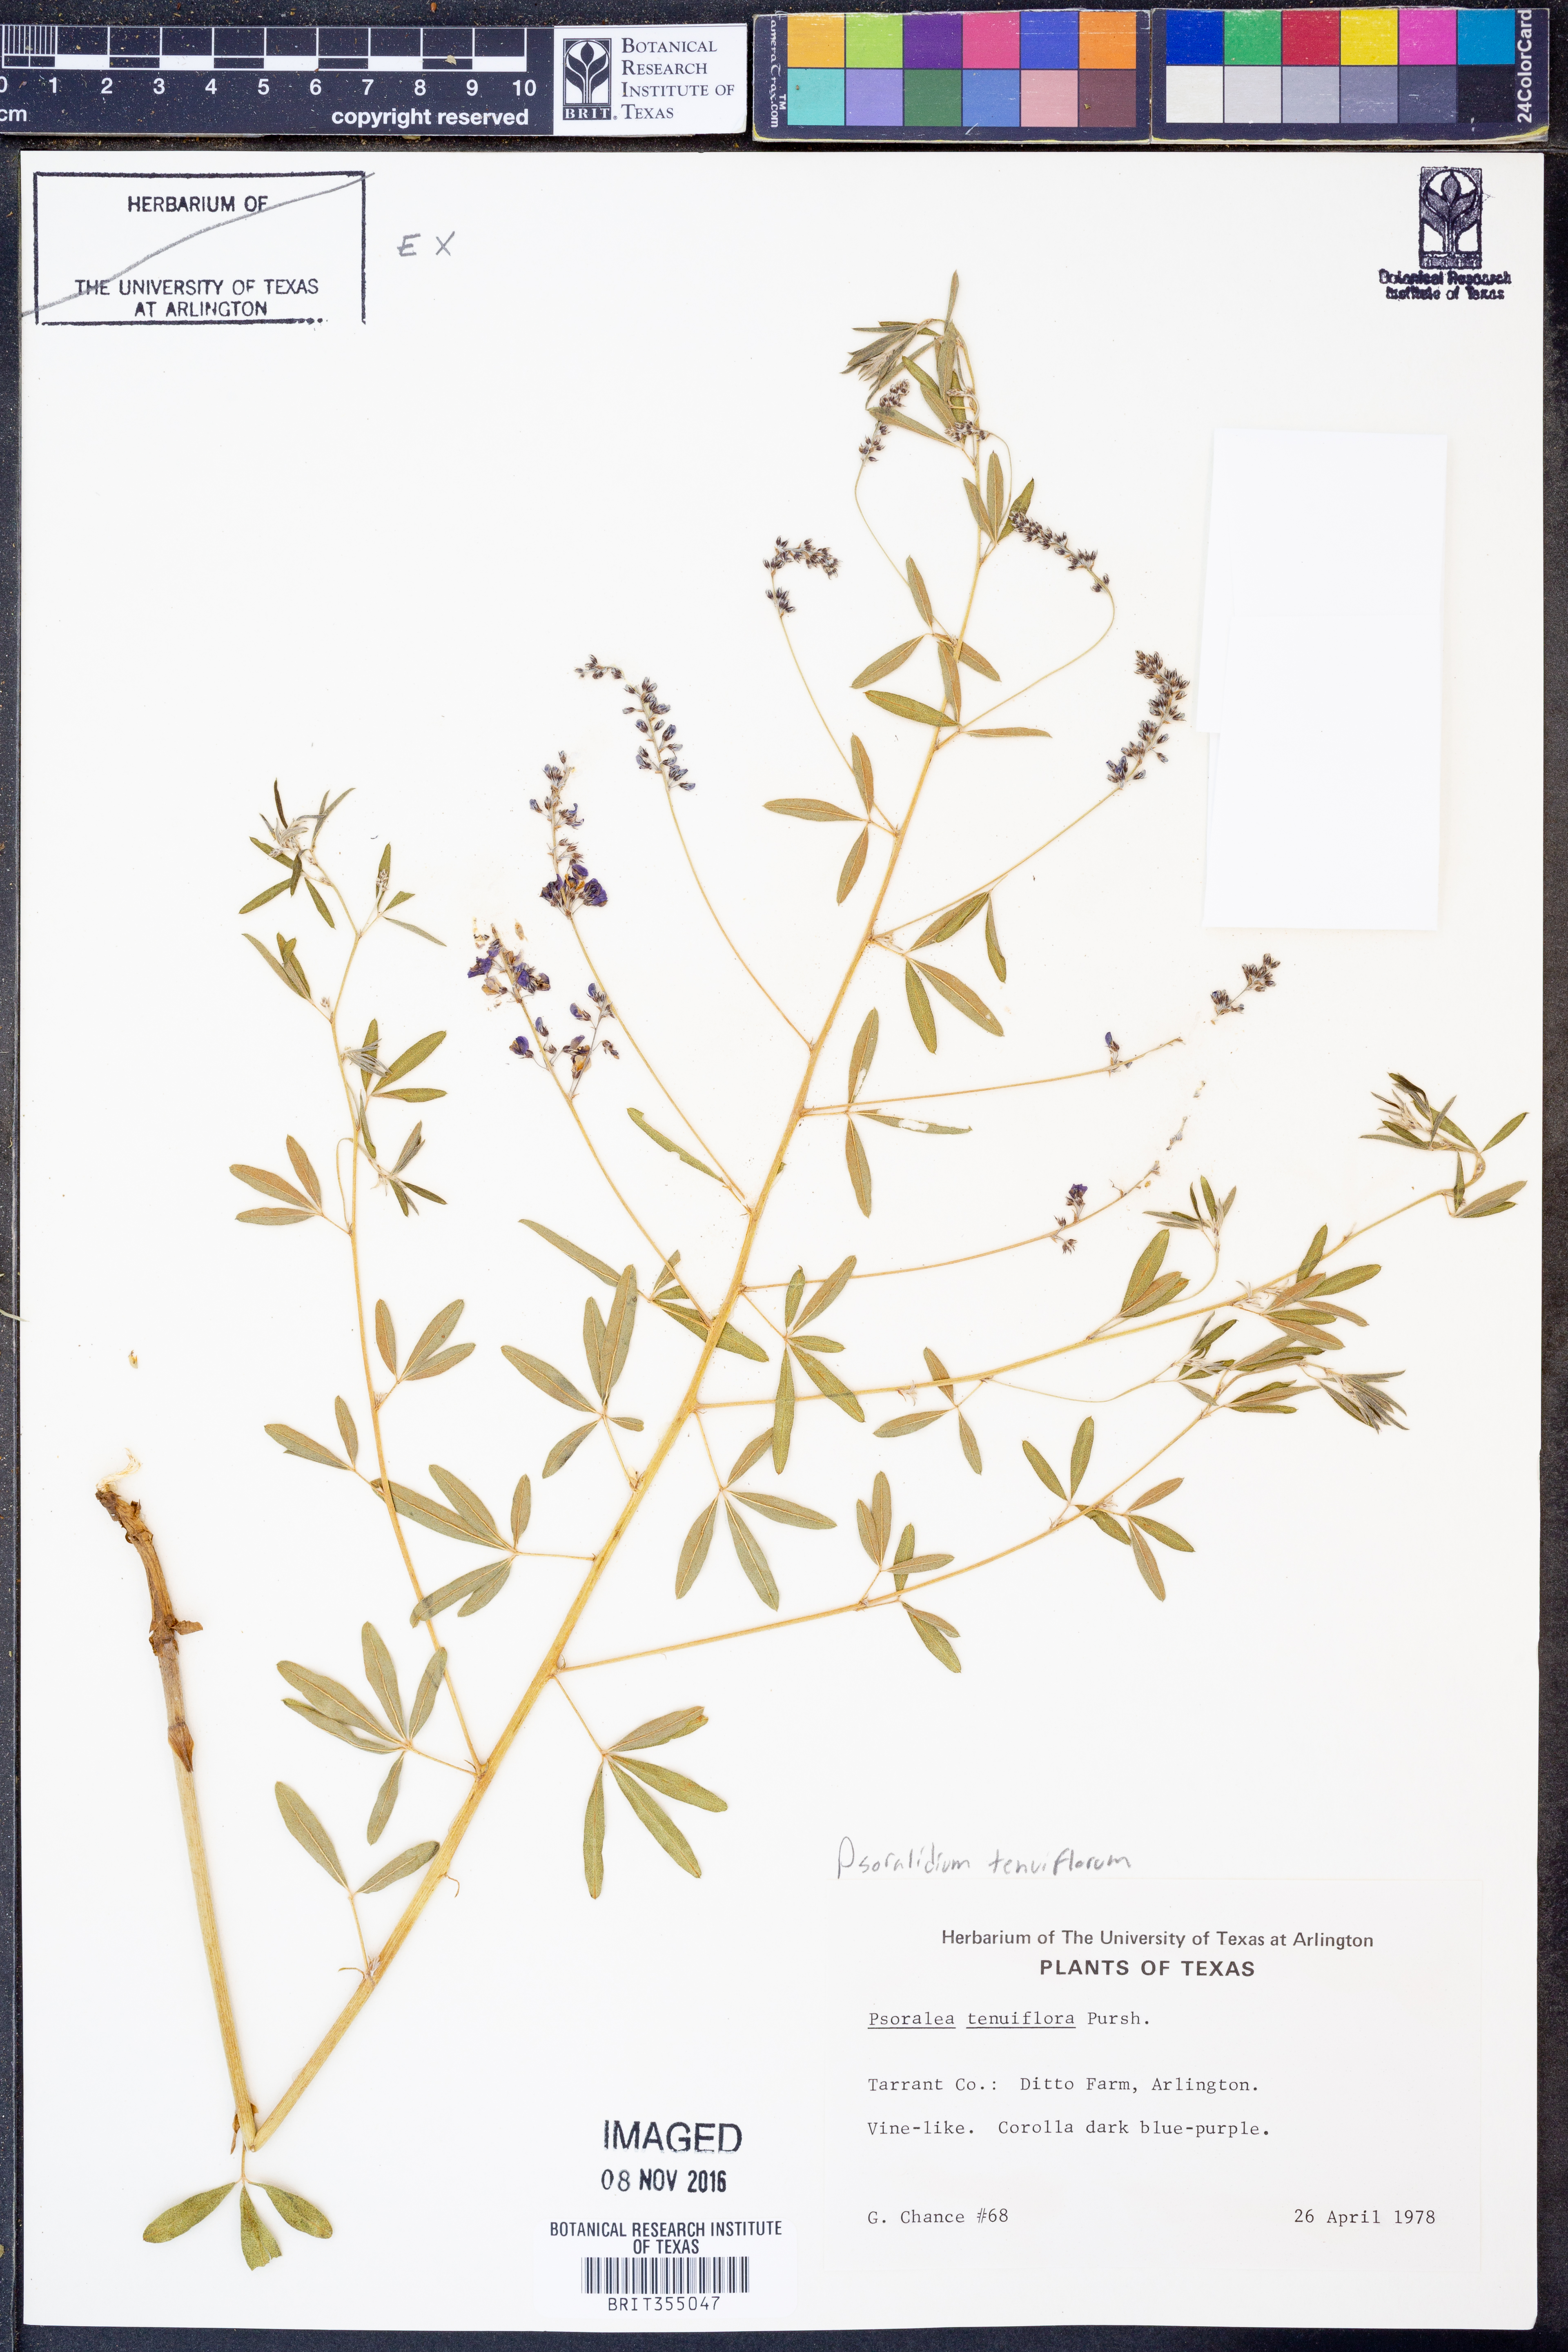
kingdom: Plantae
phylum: Tracheophyta
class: Magnoliopsida
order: Fabales
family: Fabaceae
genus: Pediomelum
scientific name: Pediomelum tenuiflorum
